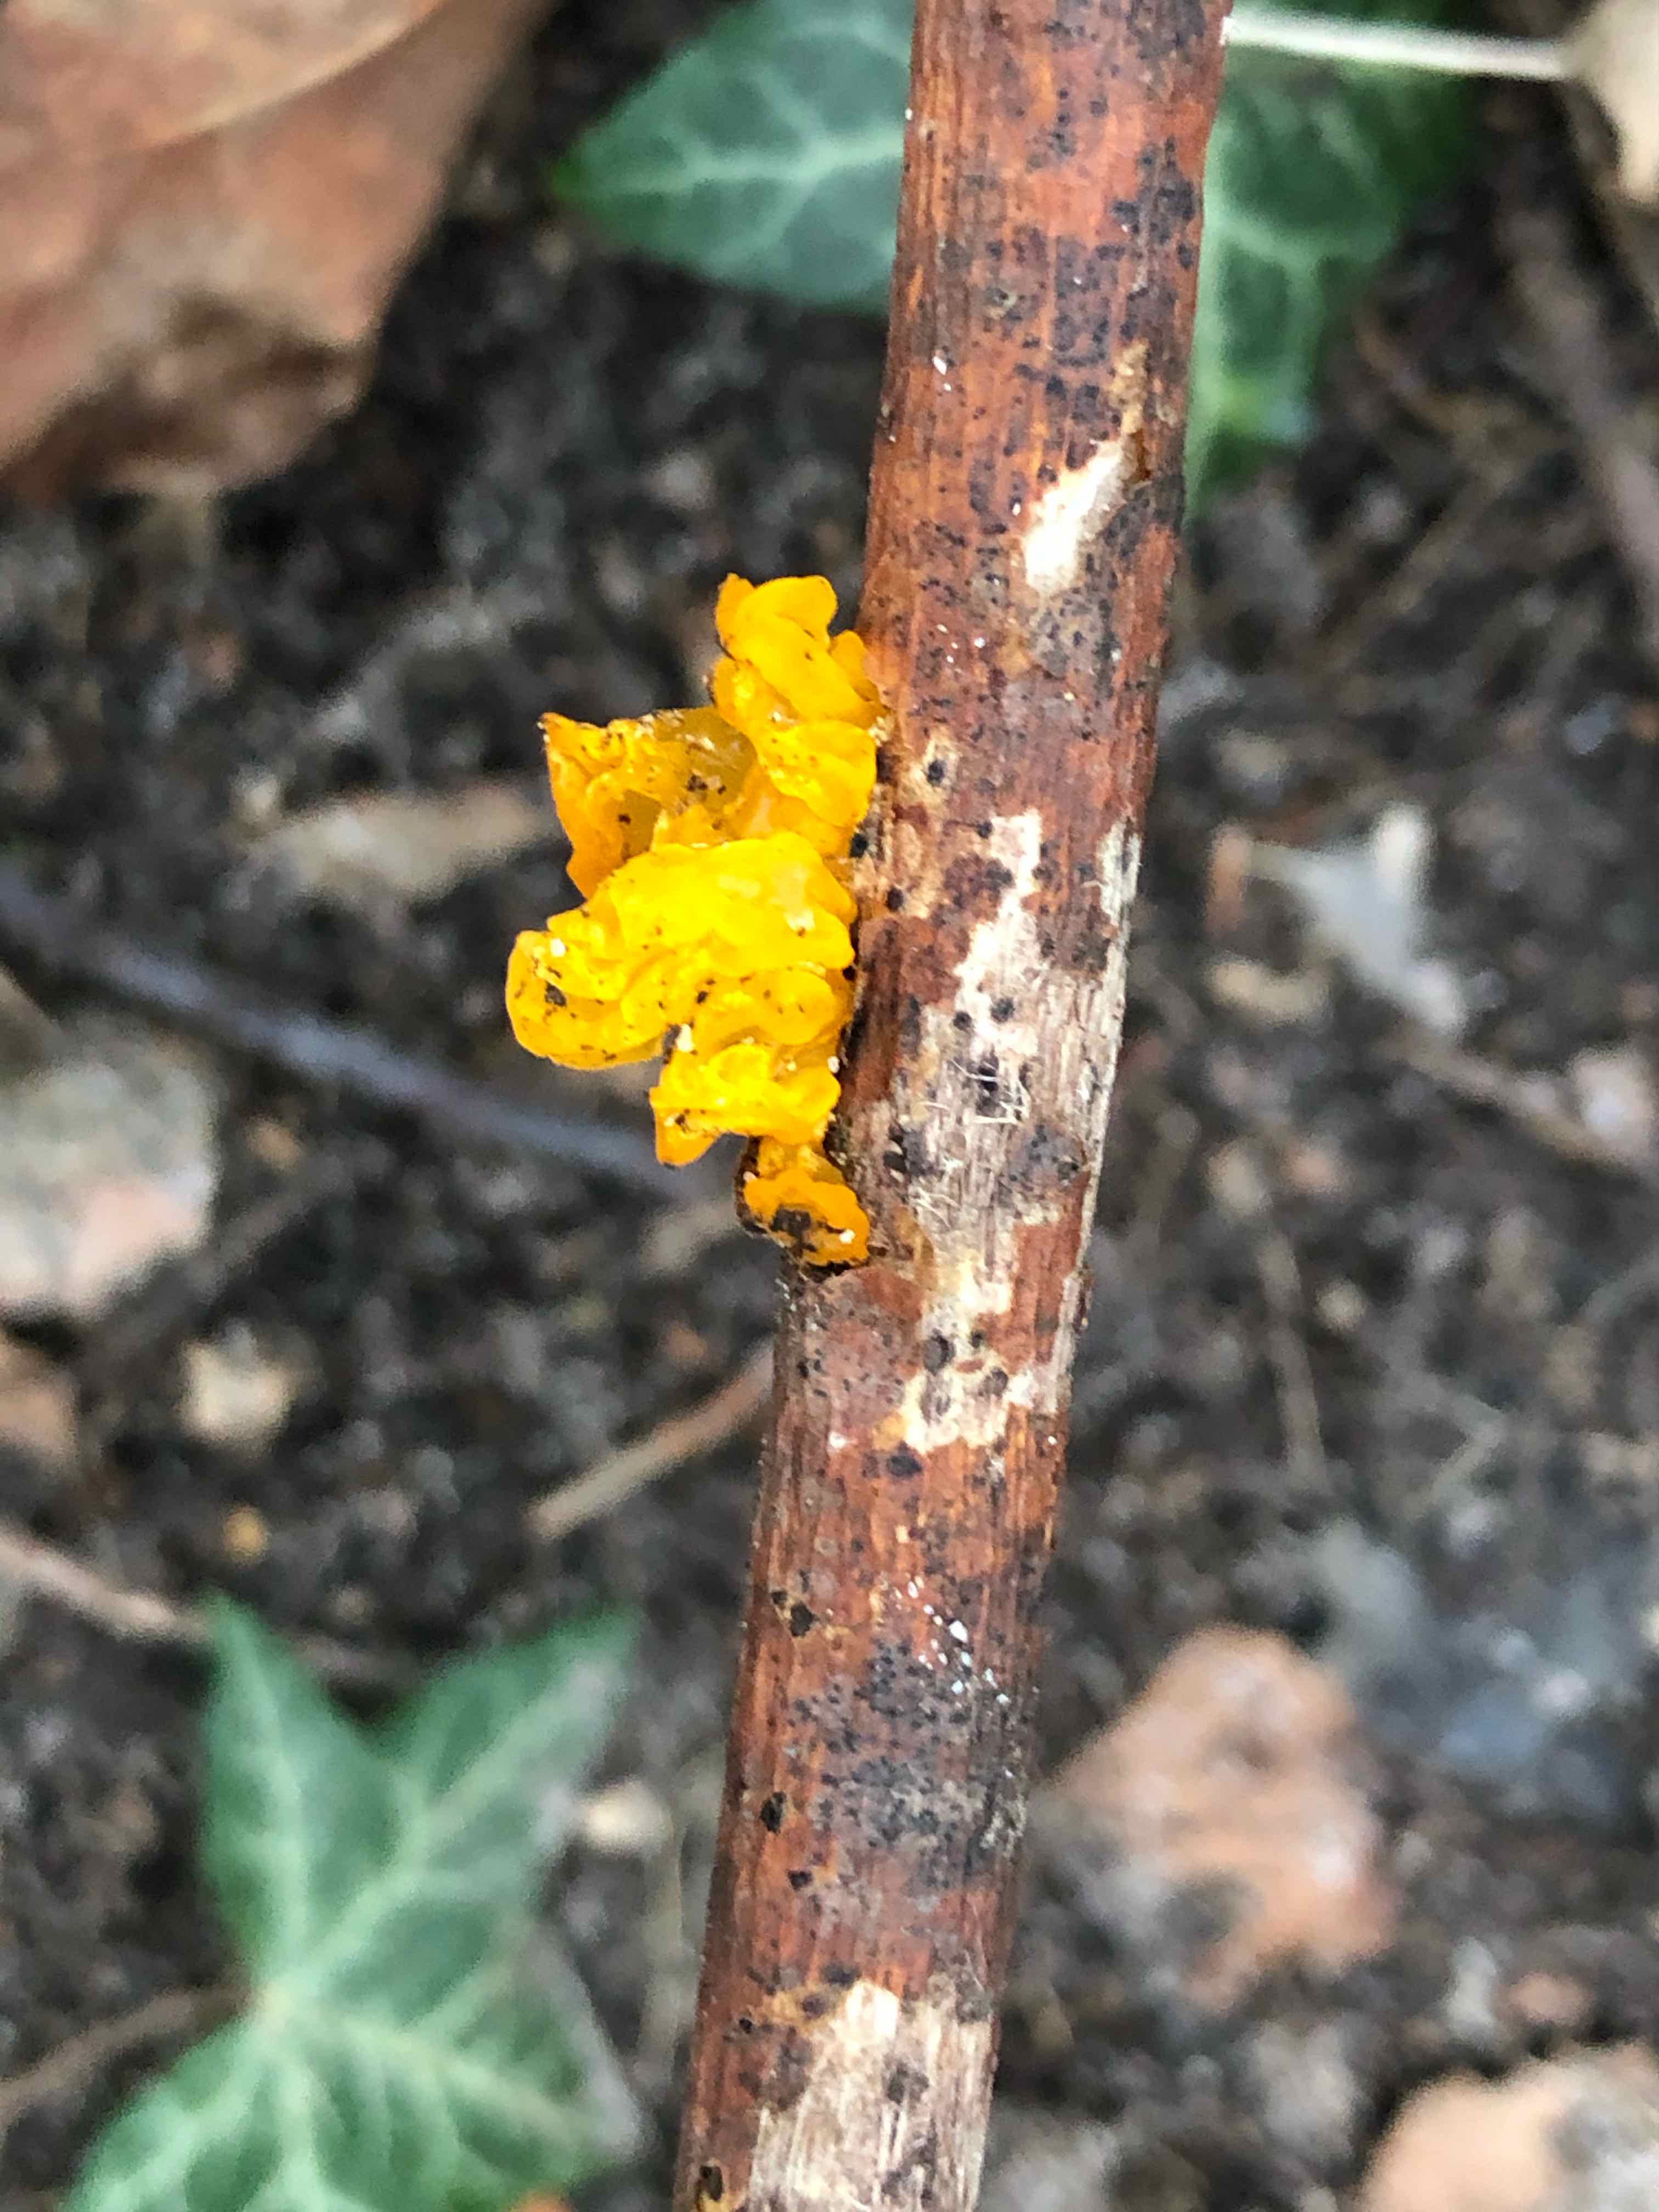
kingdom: Fungi
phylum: Basidiomycota
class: Tremellomycetes
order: Tremellales
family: Tremellaceae
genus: Tremella
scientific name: Tremella mesenterica
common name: gul bævresvamp
